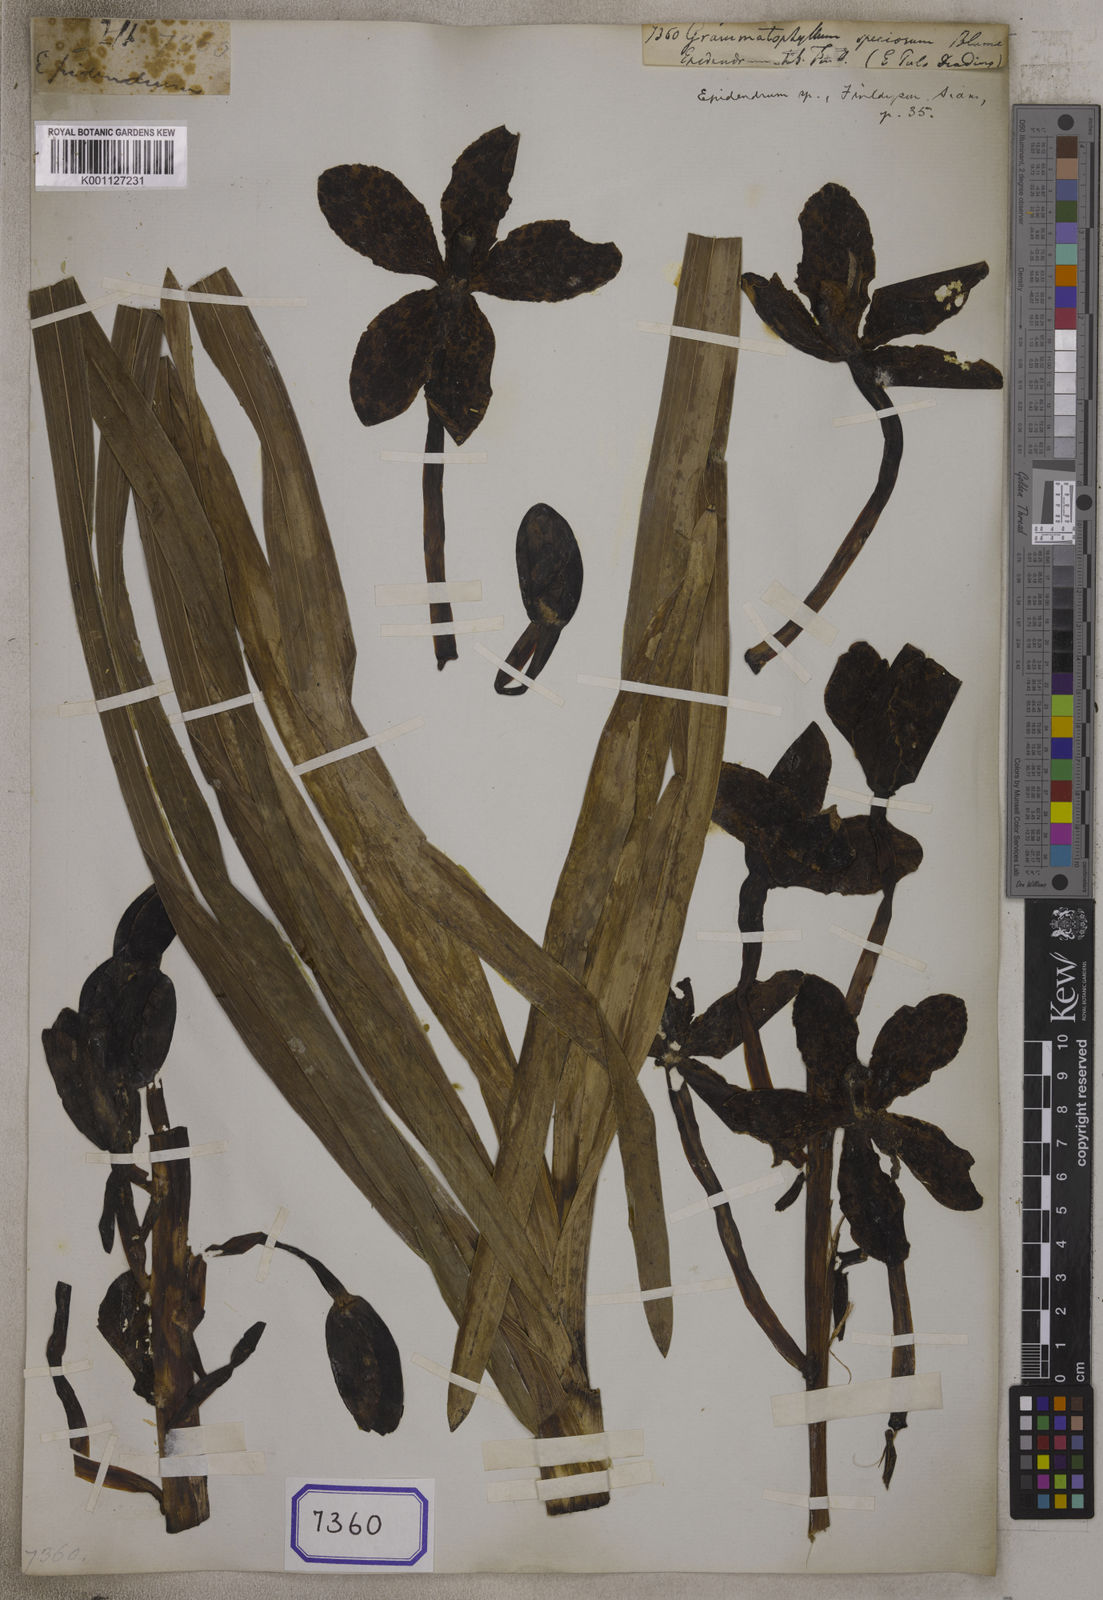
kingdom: Plantae
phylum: Tracheophyta
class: Liliopsida
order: Asparagales
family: Orchidaceae
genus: Grammatophyllum
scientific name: Grammatophyllum speciosum
